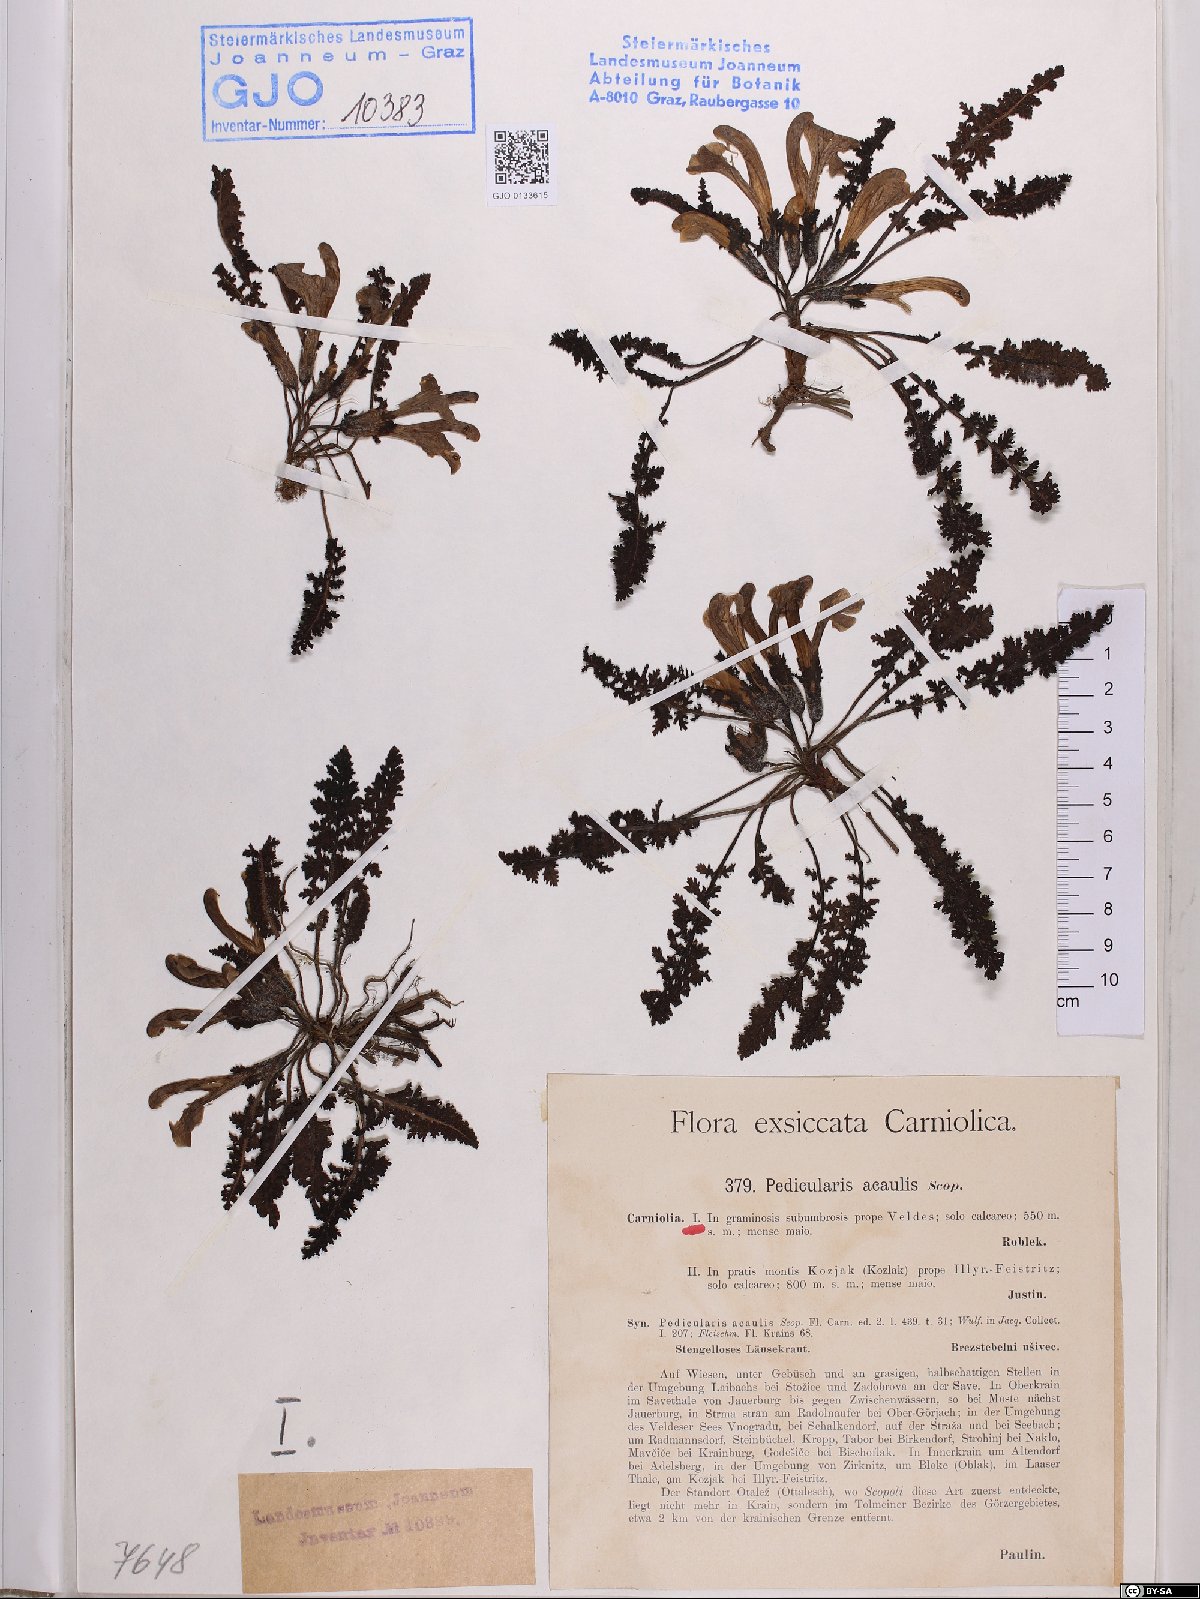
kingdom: Plantae
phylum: Tracheophyta
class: Magnoliopsida
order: Lamiales
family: Orobanchaceae
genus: Pedicularis
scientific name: Pedicularis acaulis
